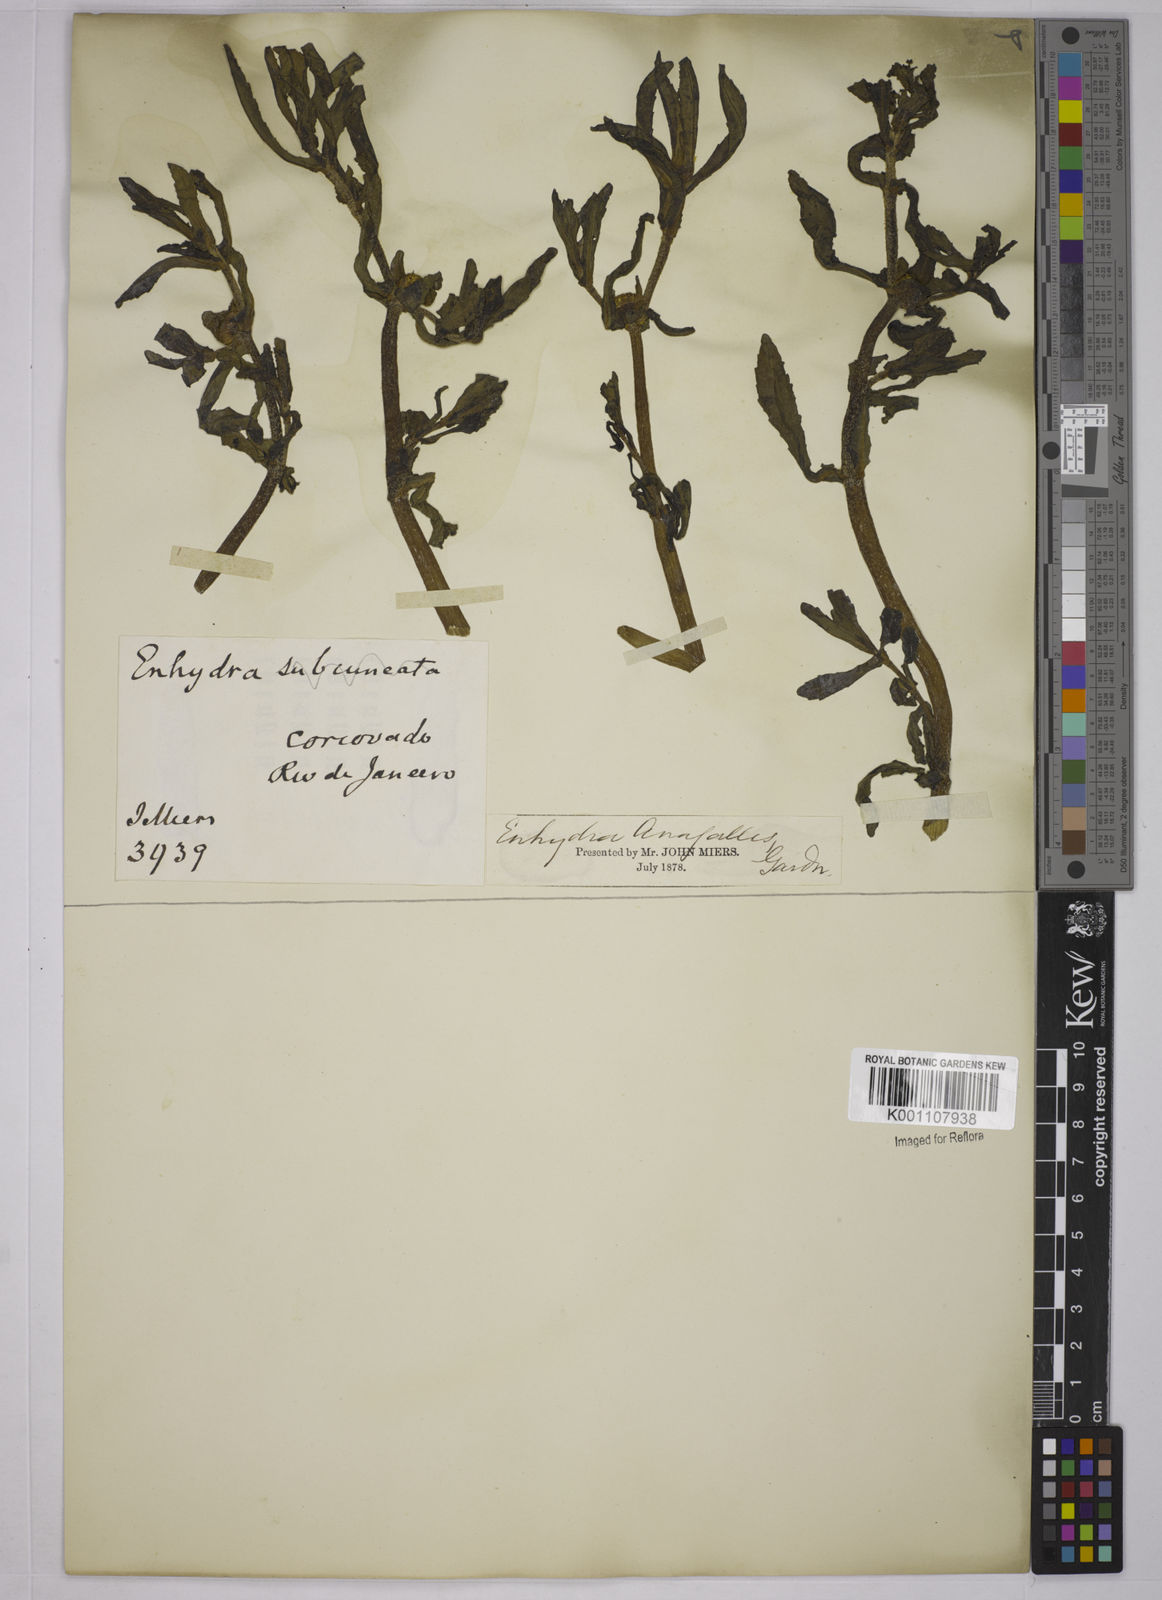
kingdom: Plantae
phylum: Tracheophyta
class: Magnoliopsida
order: Asterales
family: Asteraceae
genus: Enydra
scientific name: Enydra fluctuans
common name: Buffalo spinach
